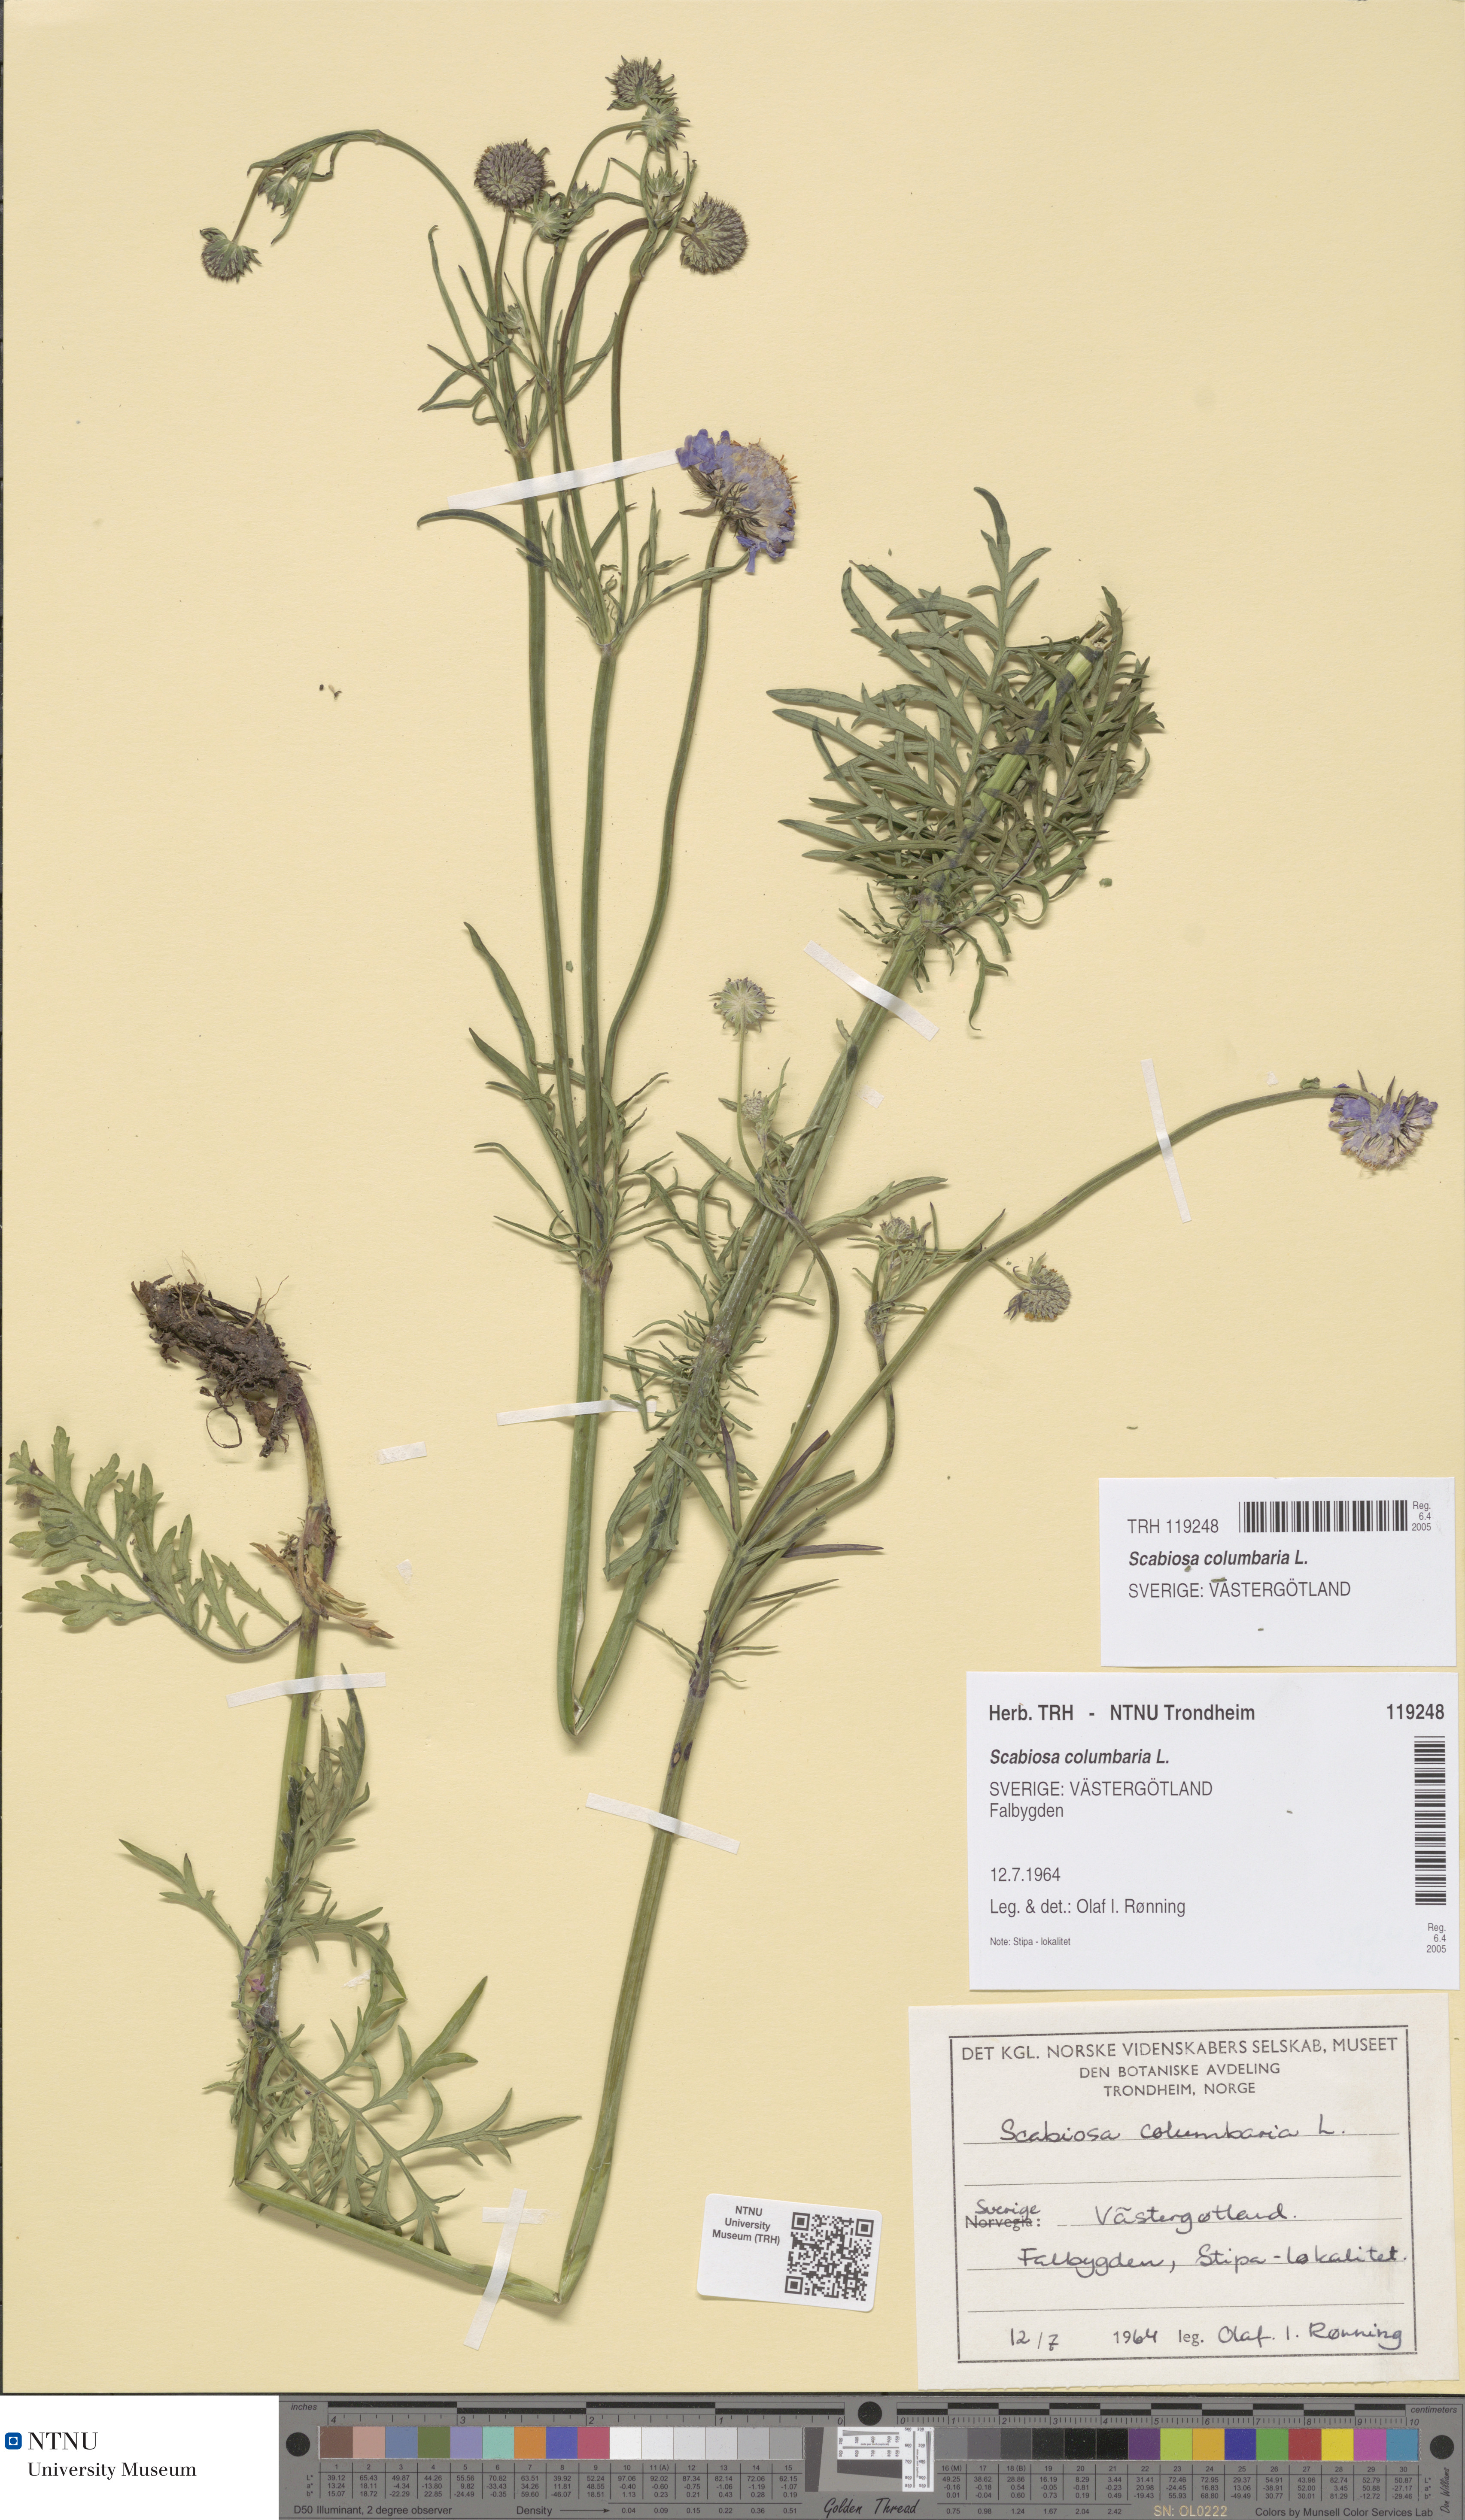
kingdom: Plantae
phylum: Tracheophyta
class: Magnoliopsida
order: Dipsacales
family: Caprifoliaceae
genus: Scabiosa
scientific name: Scabiosa columbaria
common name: Small scabious
